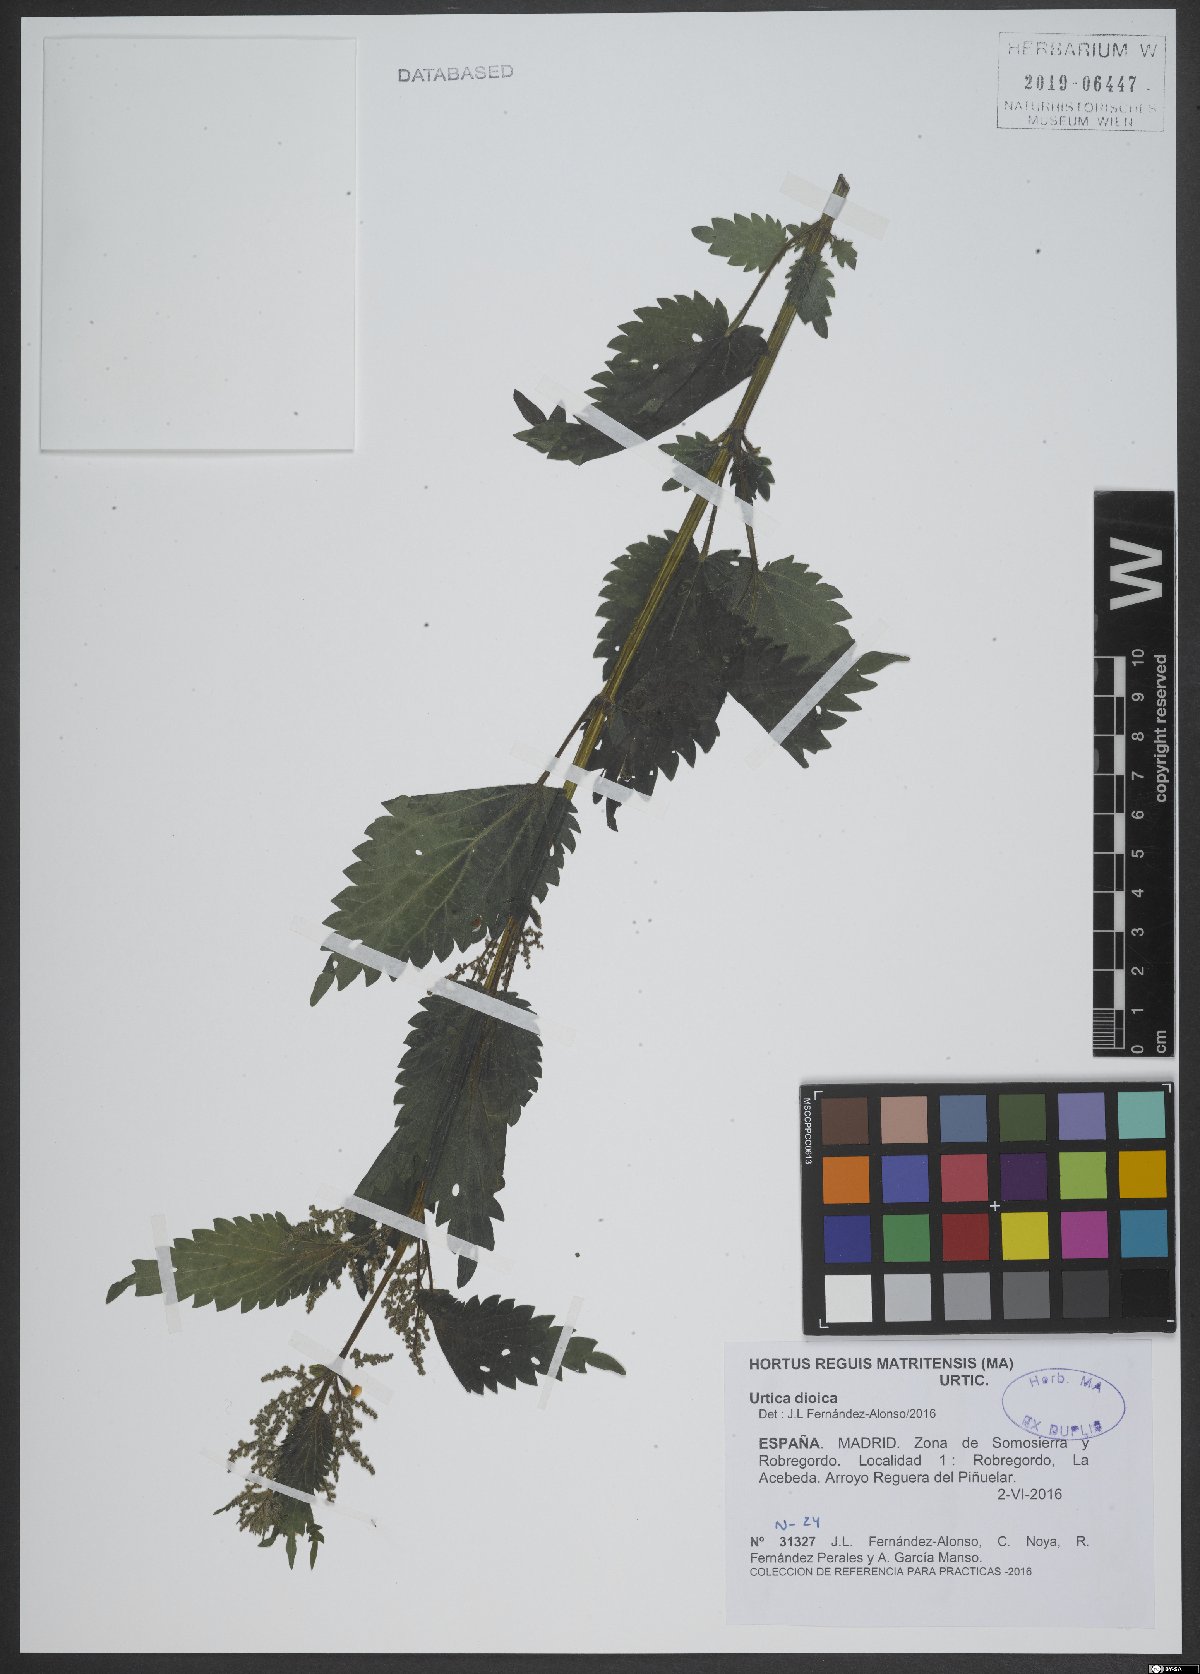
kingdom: Plantae
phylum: Tracheophyta
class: Magnoliopsida
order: Rosales
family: Urticaceae
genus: Urtica
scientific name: Urtica dioica
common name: Common nettle
